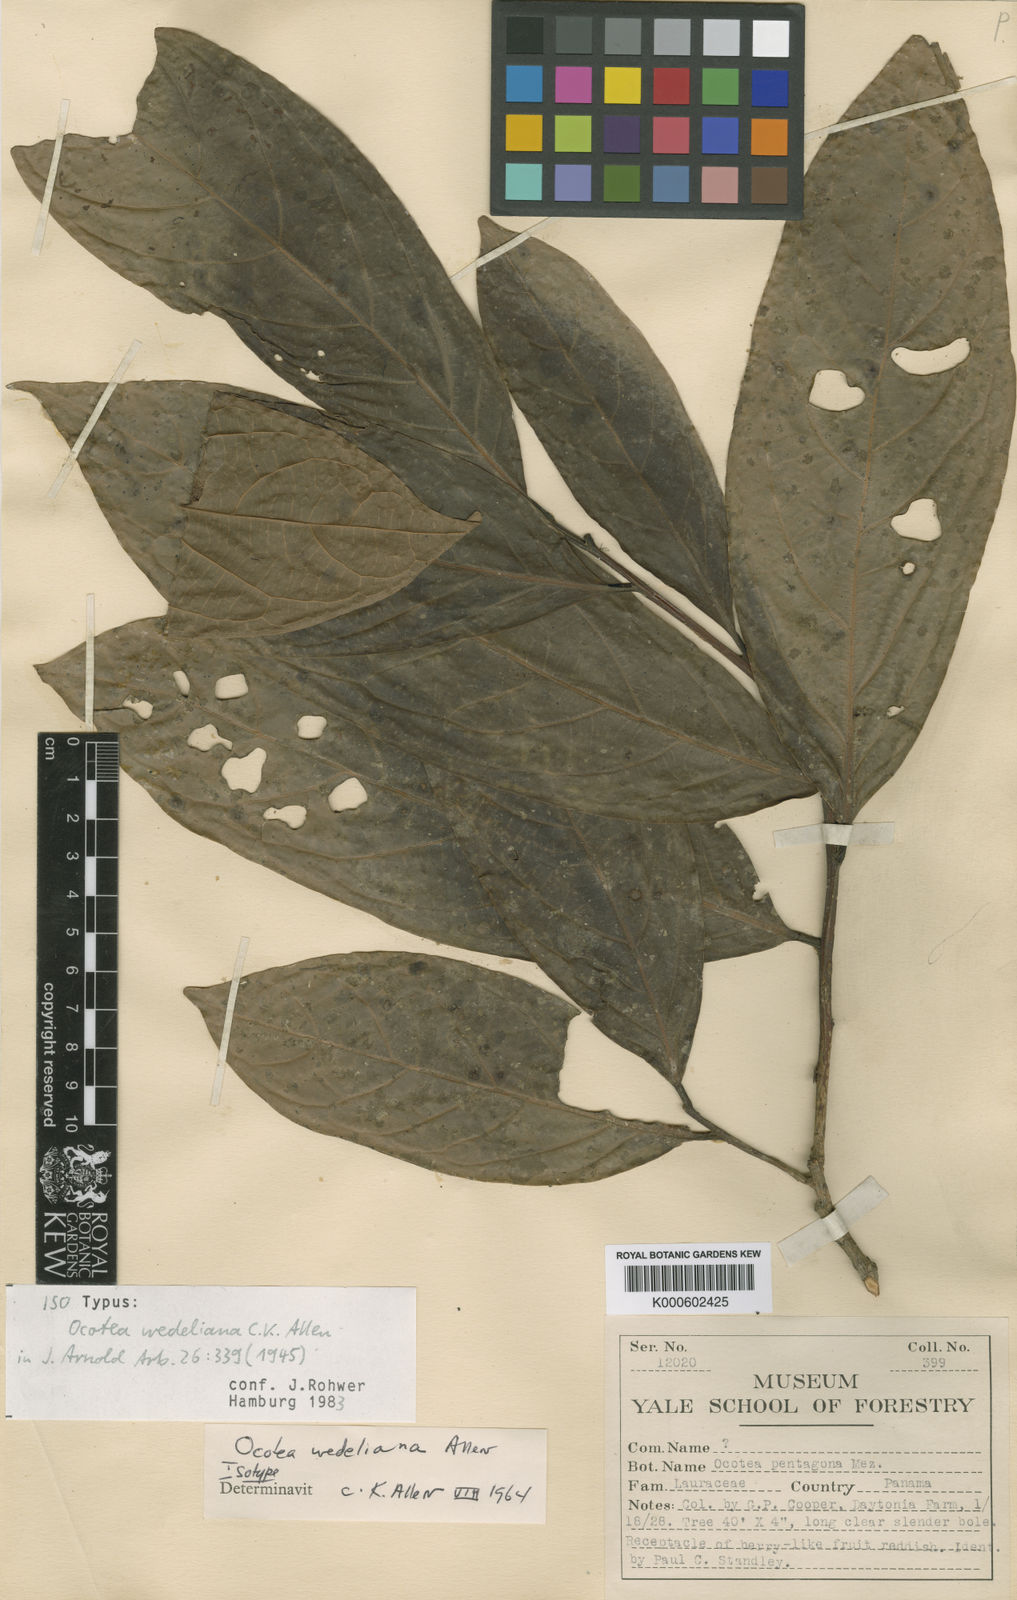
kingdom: Plantae
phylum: Tracheophyta
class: Magnoliopsida
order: Laurales
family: Lauraceae
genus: Ocotea
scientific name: Ocotea wedeliana
